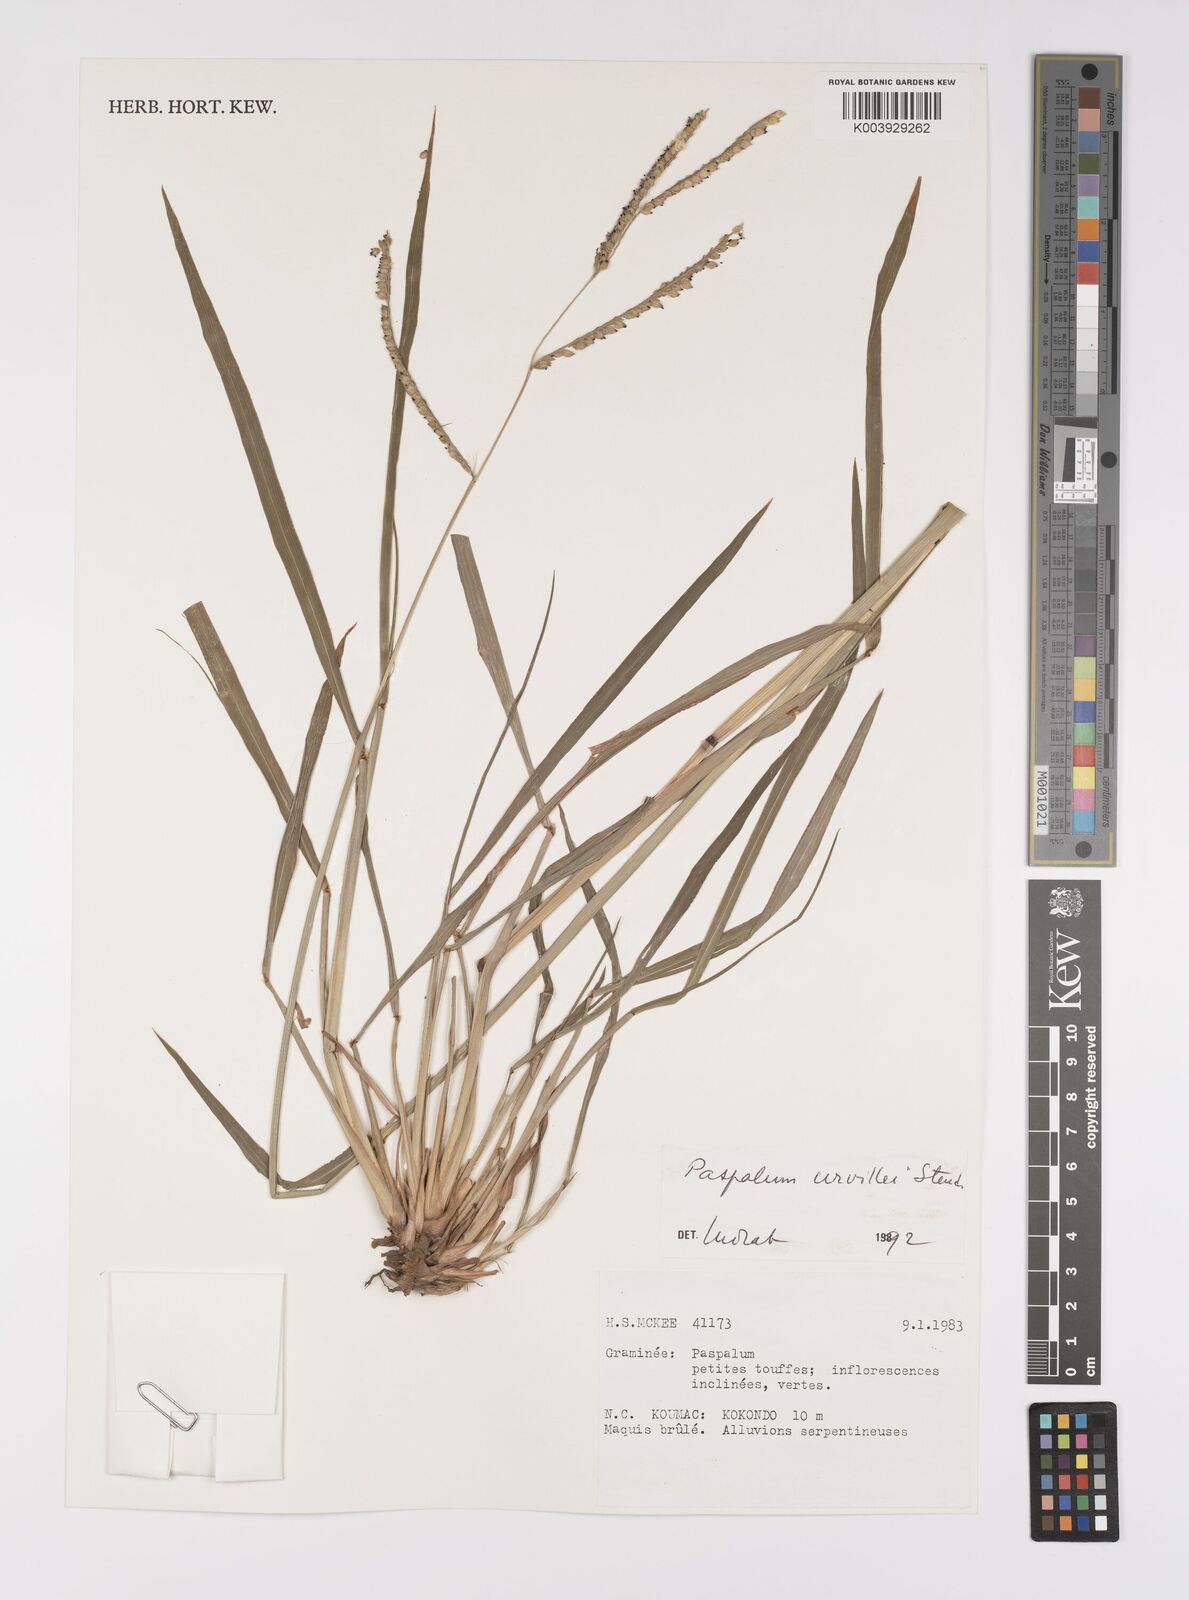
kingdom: Plantae
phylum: Tracheophyta
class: Liliopsida
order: Poales
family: Poaceae
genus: Paspalum
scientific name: Paspalum dilatatum
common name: Dallisgrass
